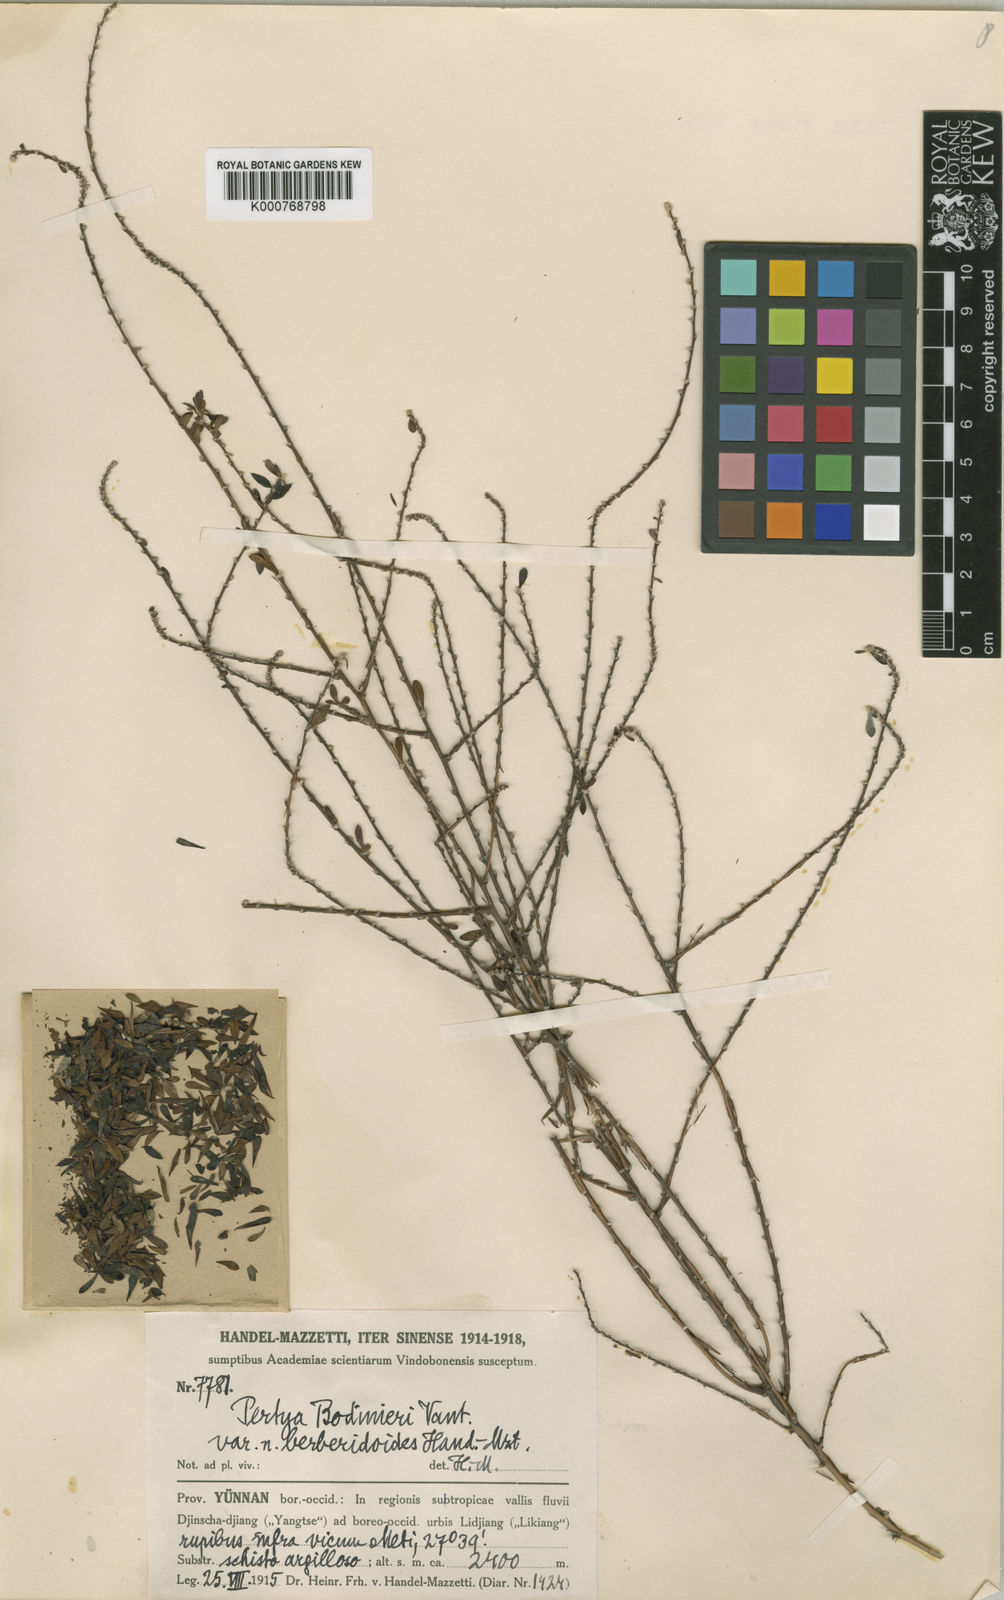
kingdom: Plantae
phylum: Tracheophyta
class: Magnoliopsida
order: Asterales
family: Asteraceae
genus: Pertya
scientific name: Pertya scandens
